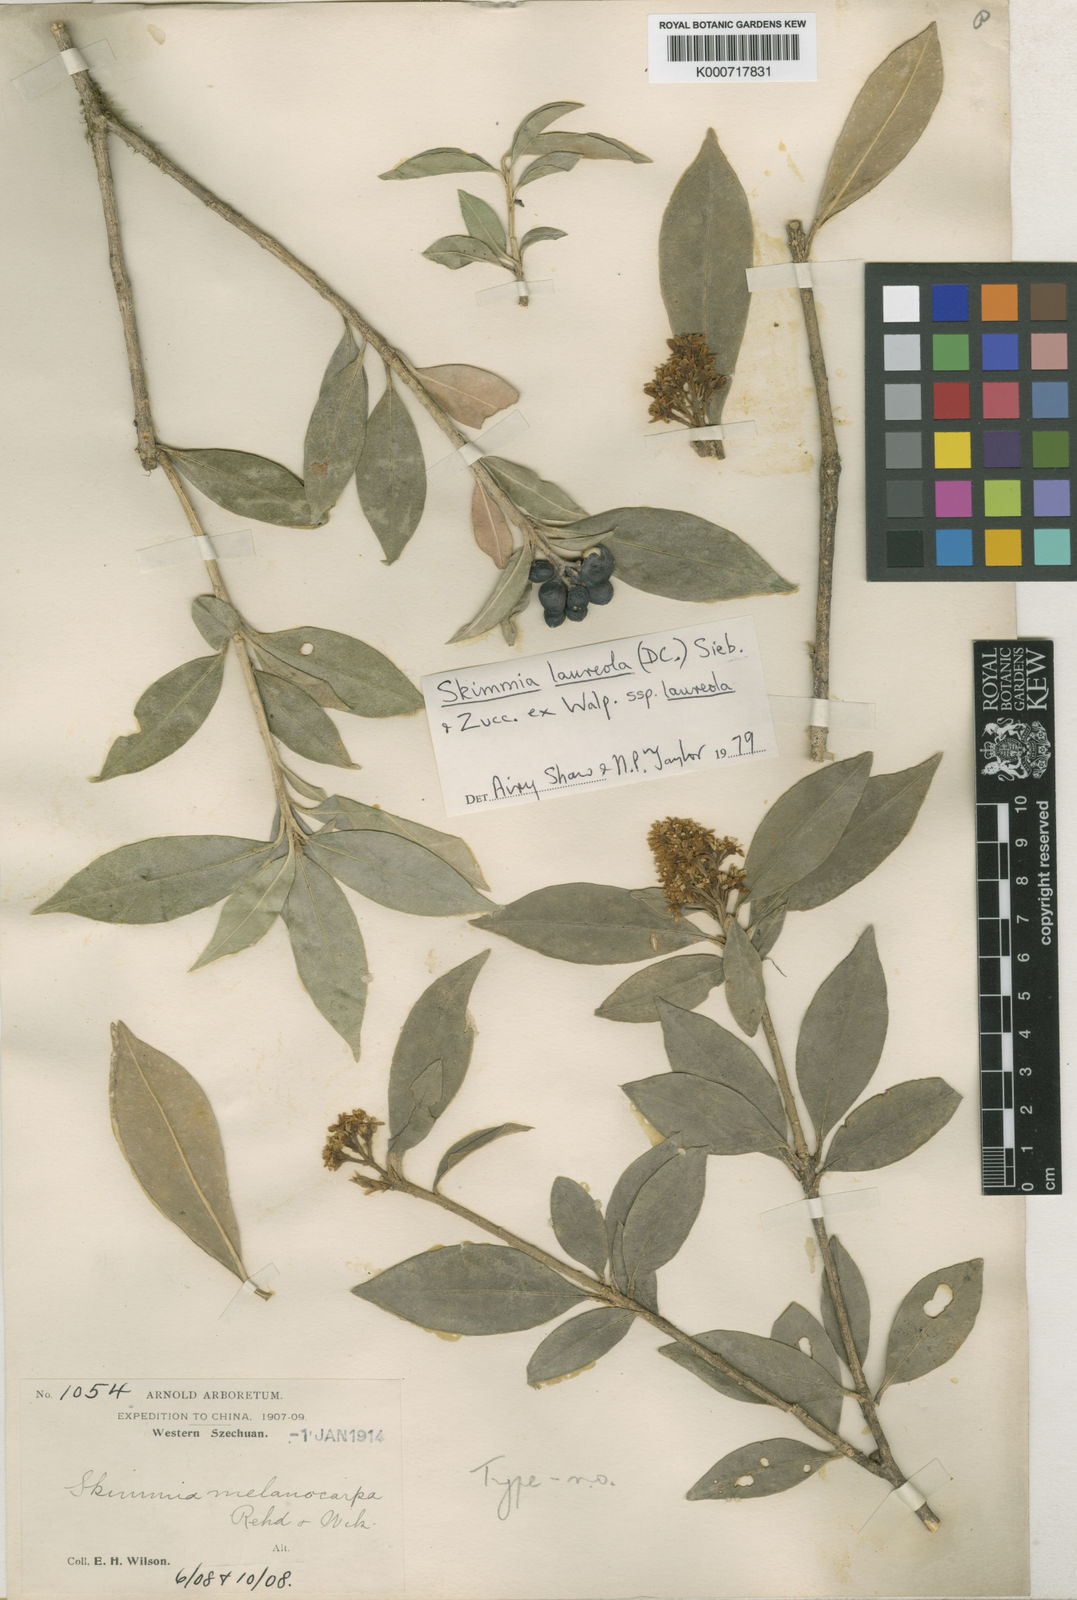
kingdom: Plantae
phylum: Tracheophyta
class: Magnoliopsida
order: Sapindales
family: Rutaceae
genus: Skimmia
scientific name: Skimmia
